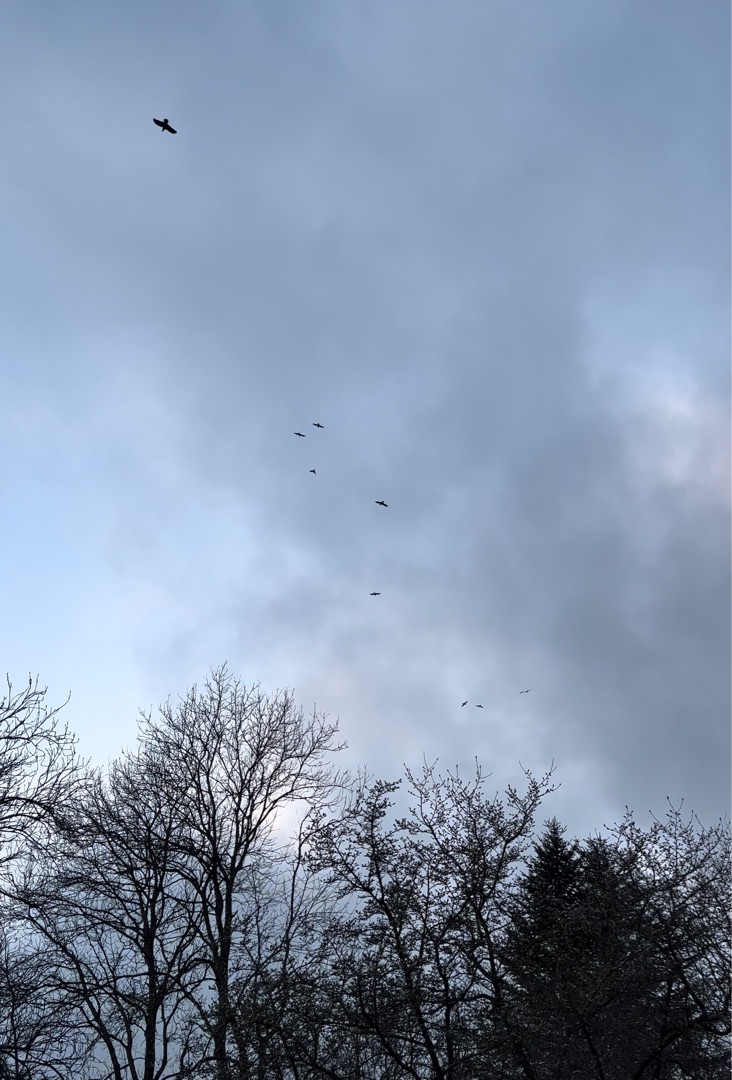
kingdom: Animalia
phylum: Chordata
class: Aves
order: Passeriformes
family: Corvidae
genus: Corvus
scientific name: Corvus corax
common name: Ravn
